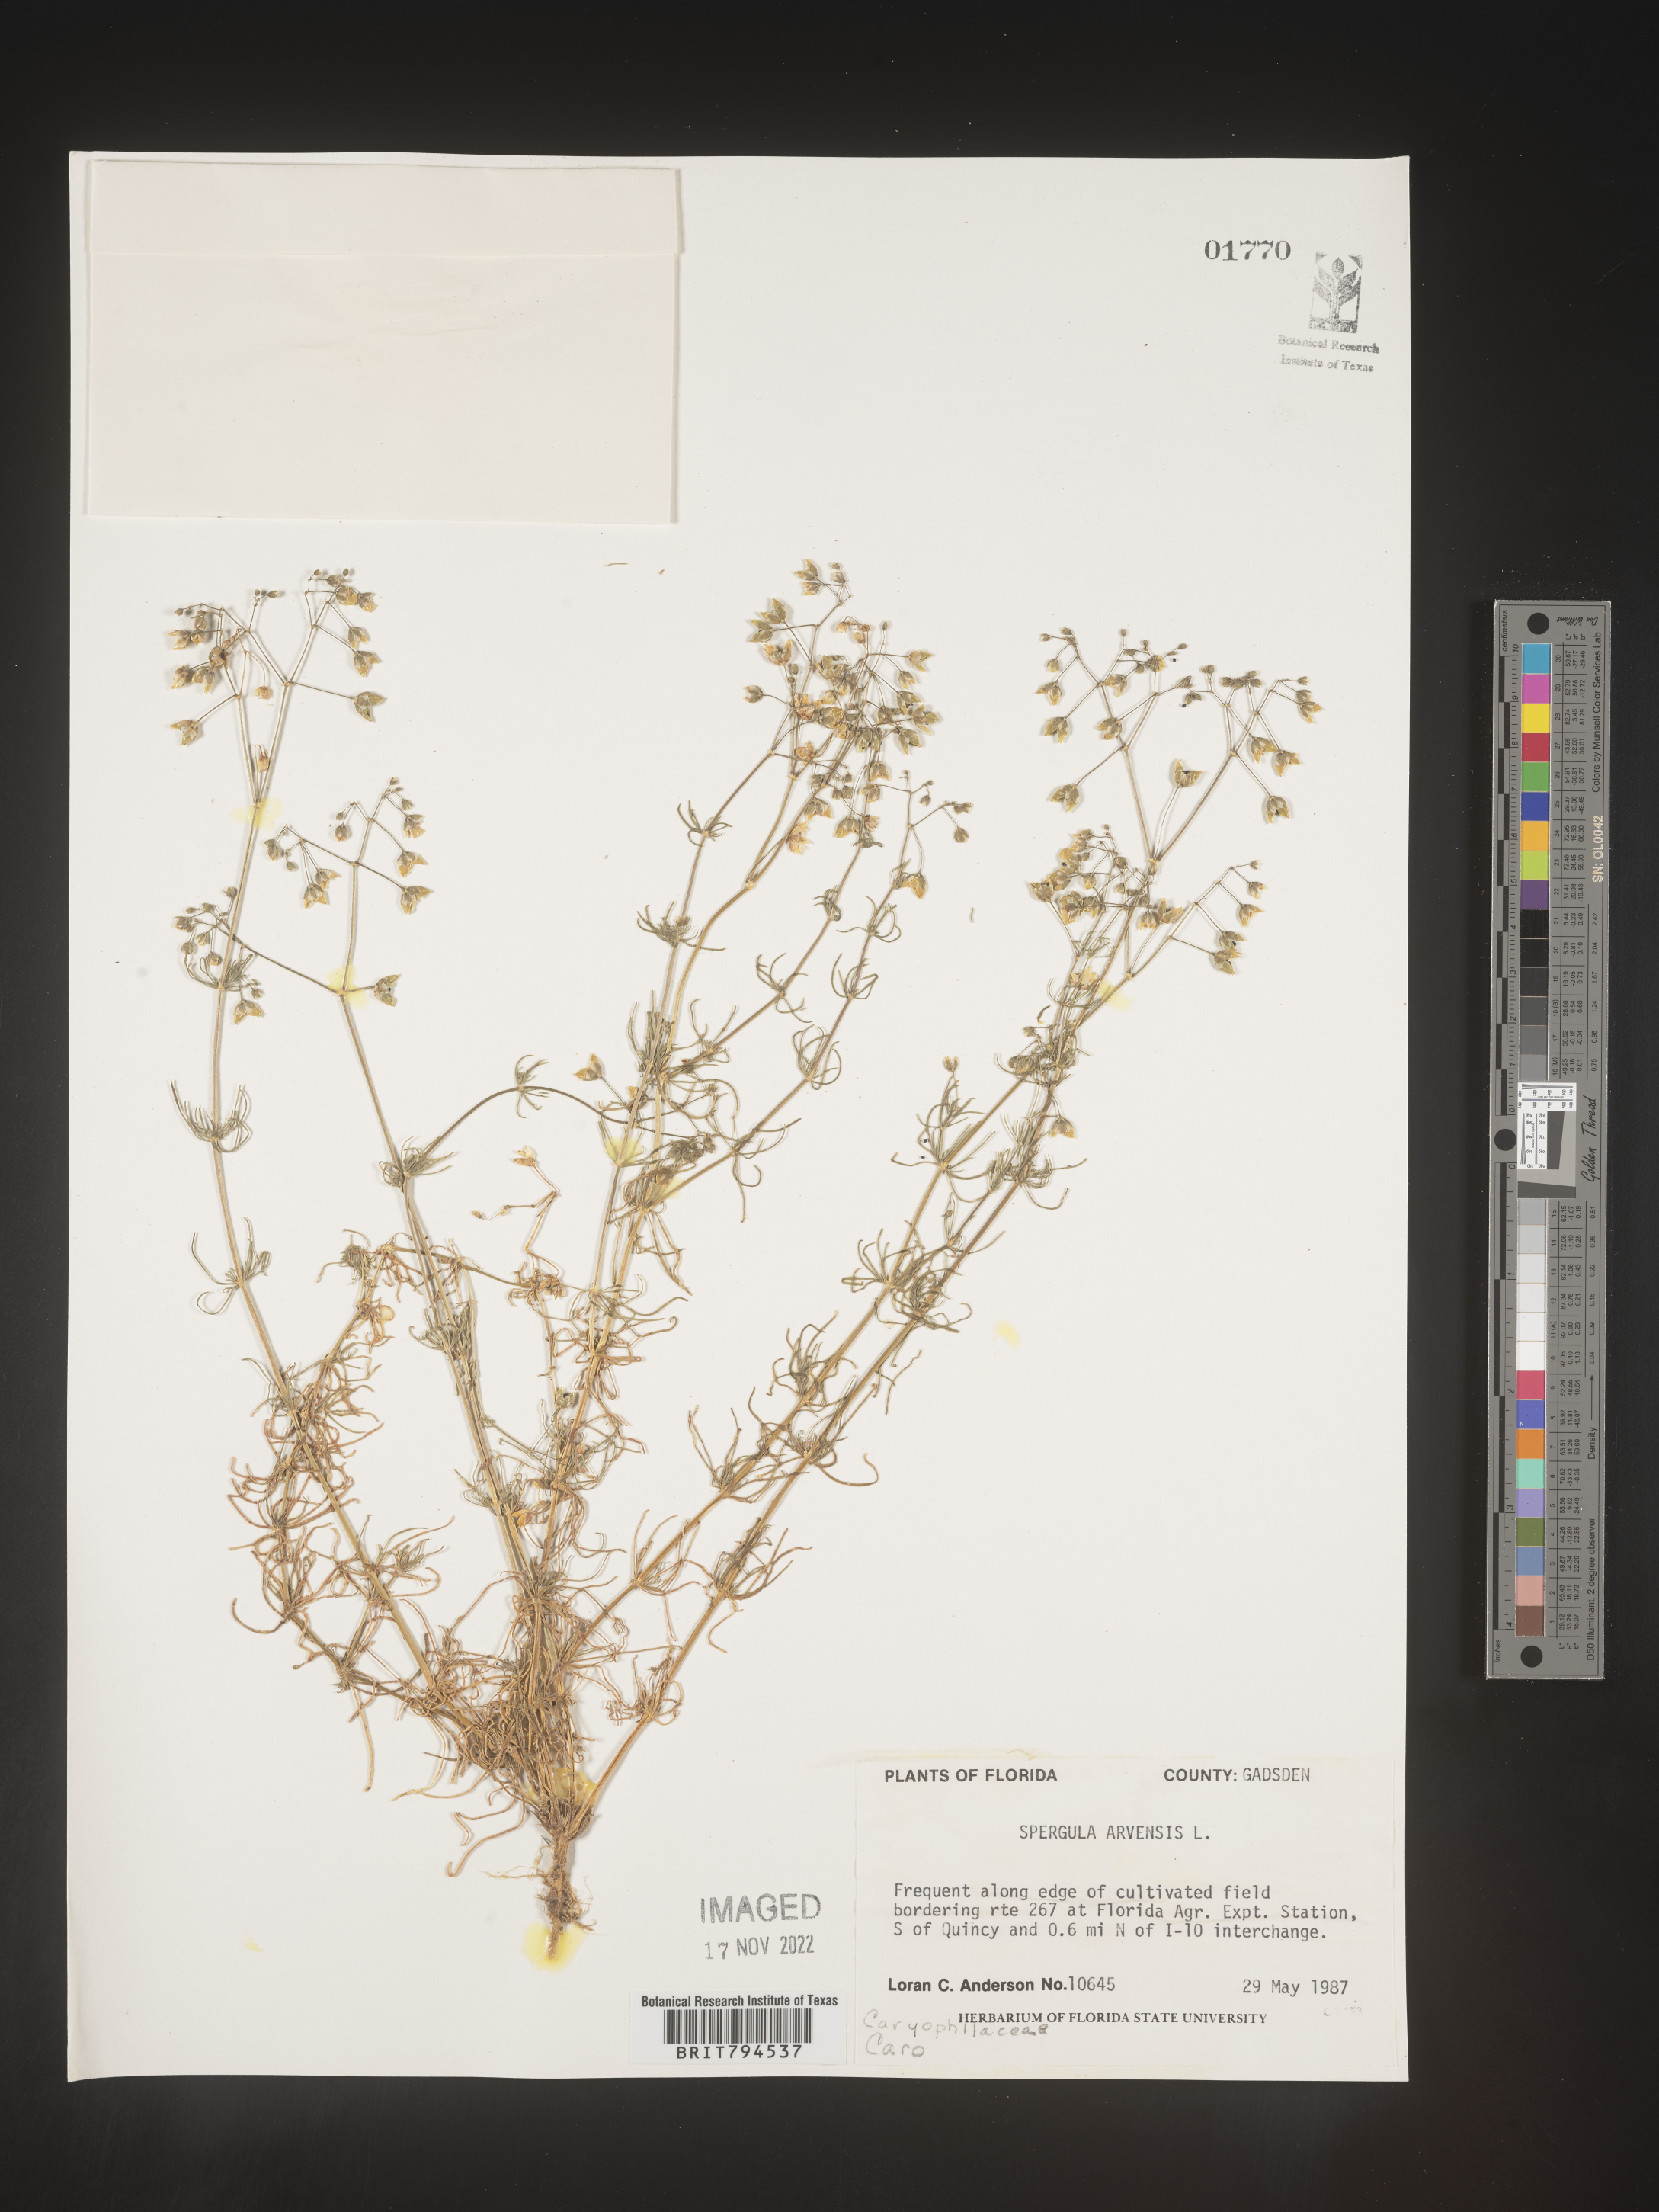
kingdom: Plantae
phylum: Tracheophyta
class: Magnoliopsida
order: Caryophyllales
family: Caryophyllaceae
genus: Spergula
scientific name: Spergula arvensis
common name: Corn spurrey
